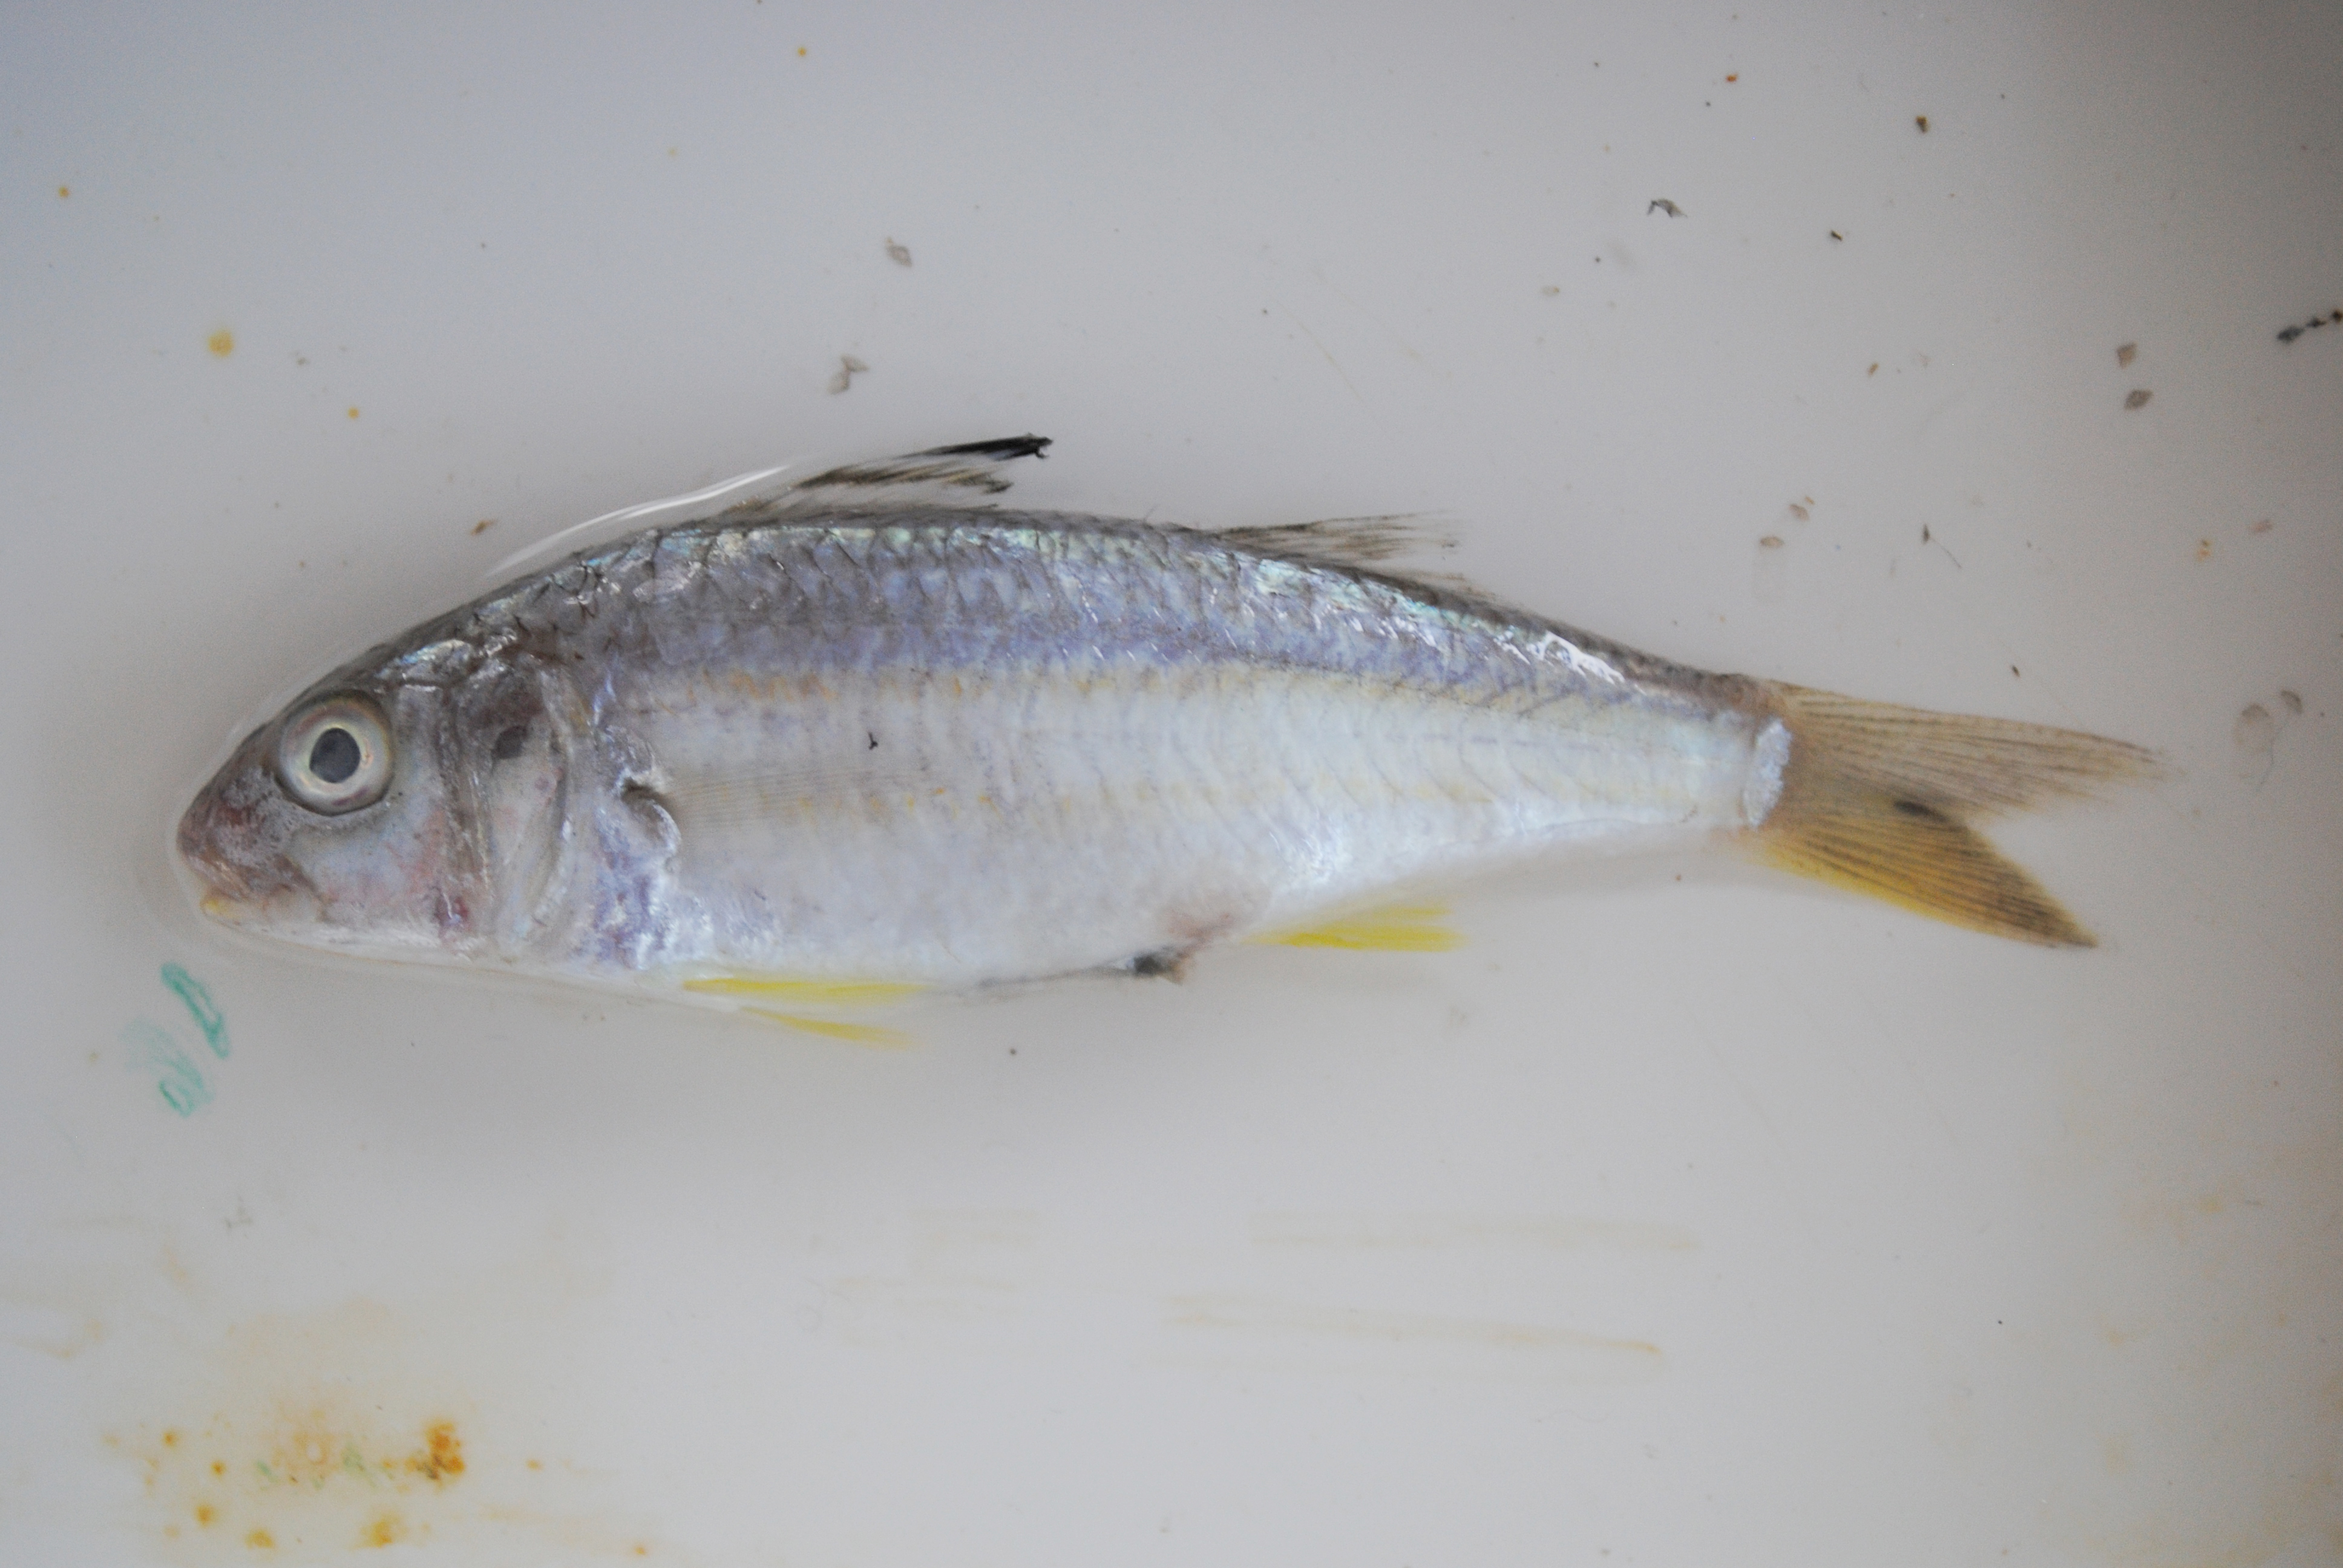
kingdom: Animalia
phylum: Chordata
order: Perciformes
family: Mullidae
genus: Upeneus
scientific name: Upeneus sulphureus
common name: Sulphur goatfish
